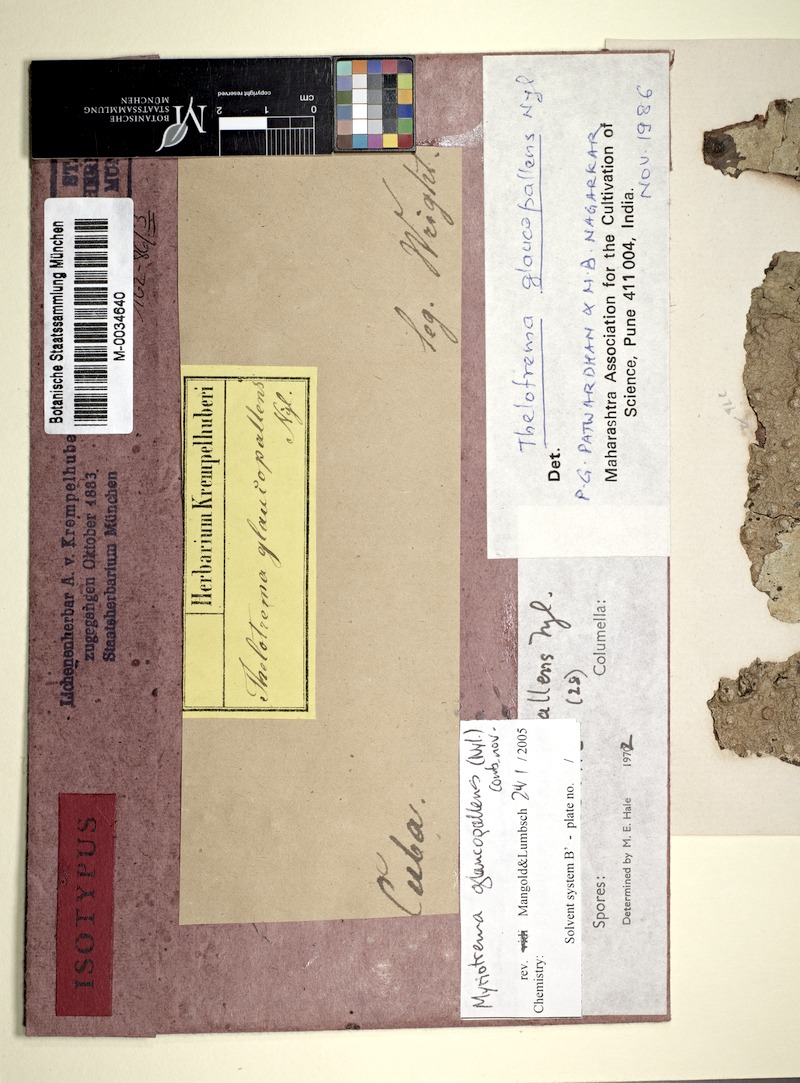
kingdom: Fungi
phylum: Ascomycota
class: Lecanoromycetes
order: Ostropales
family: Graphidaceae
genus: Wirthiotrema
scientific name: Wirthiotrema glaucopallens
